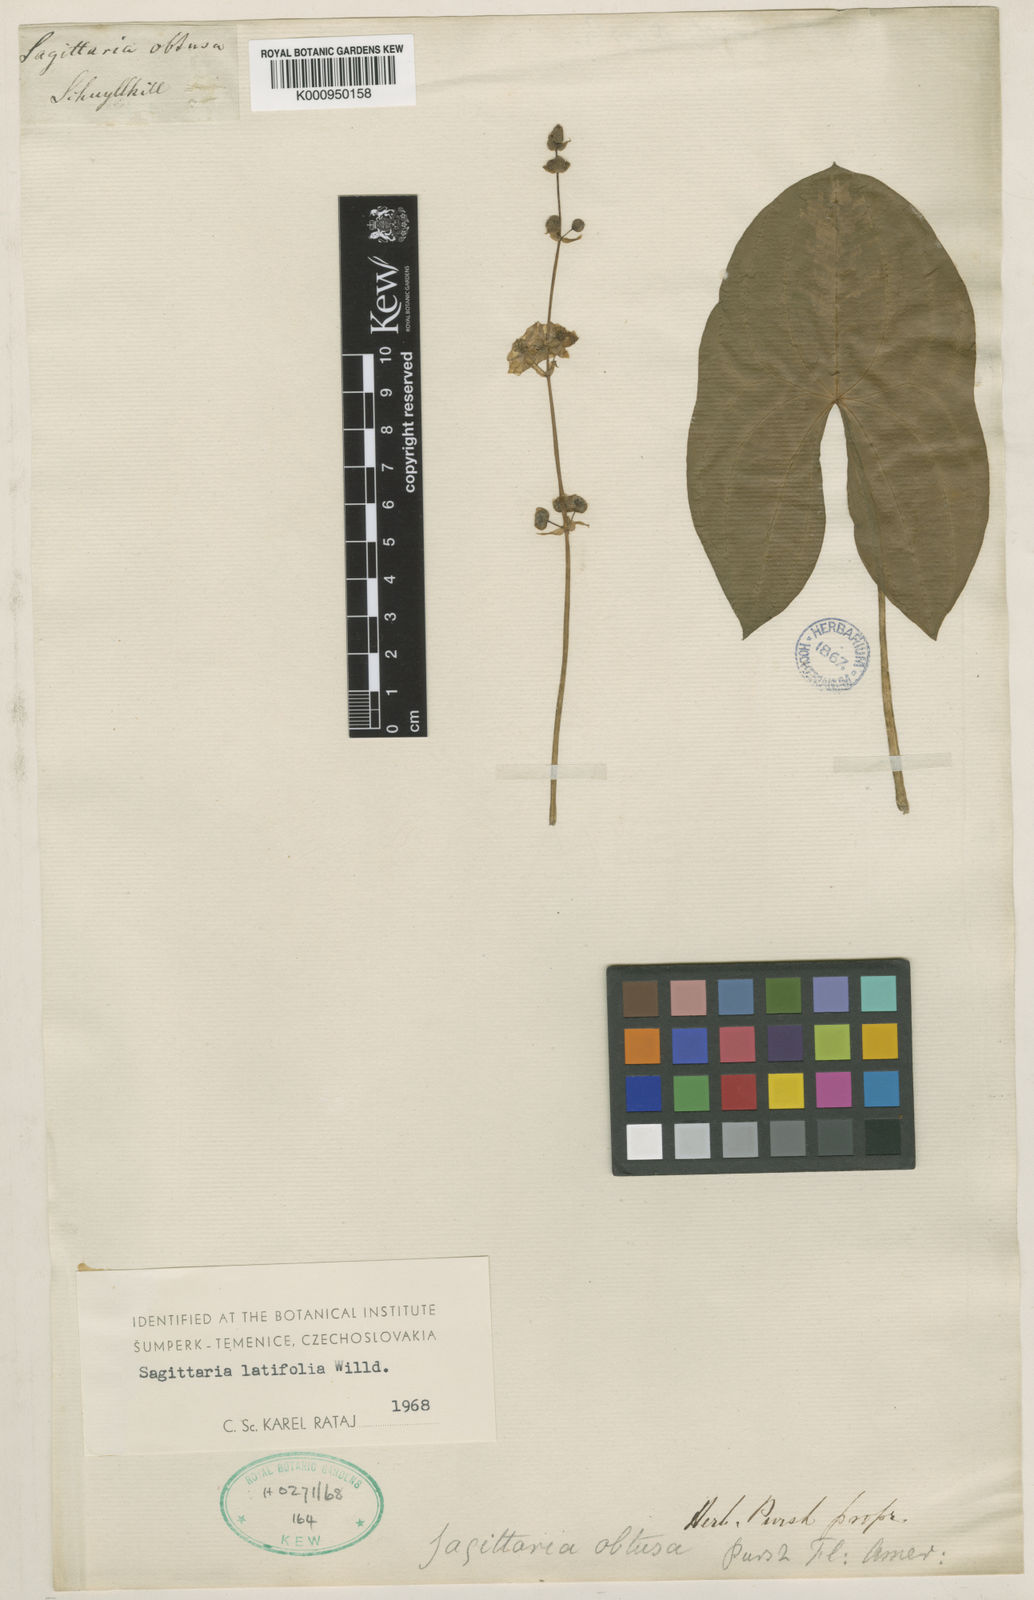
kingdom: Plantae
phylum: Tracheophyta
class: Liliopsida
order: Alismatales
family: Alismataceae
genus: Sagittaria
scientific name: Sagittaria latifolia
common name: Duck-potato
